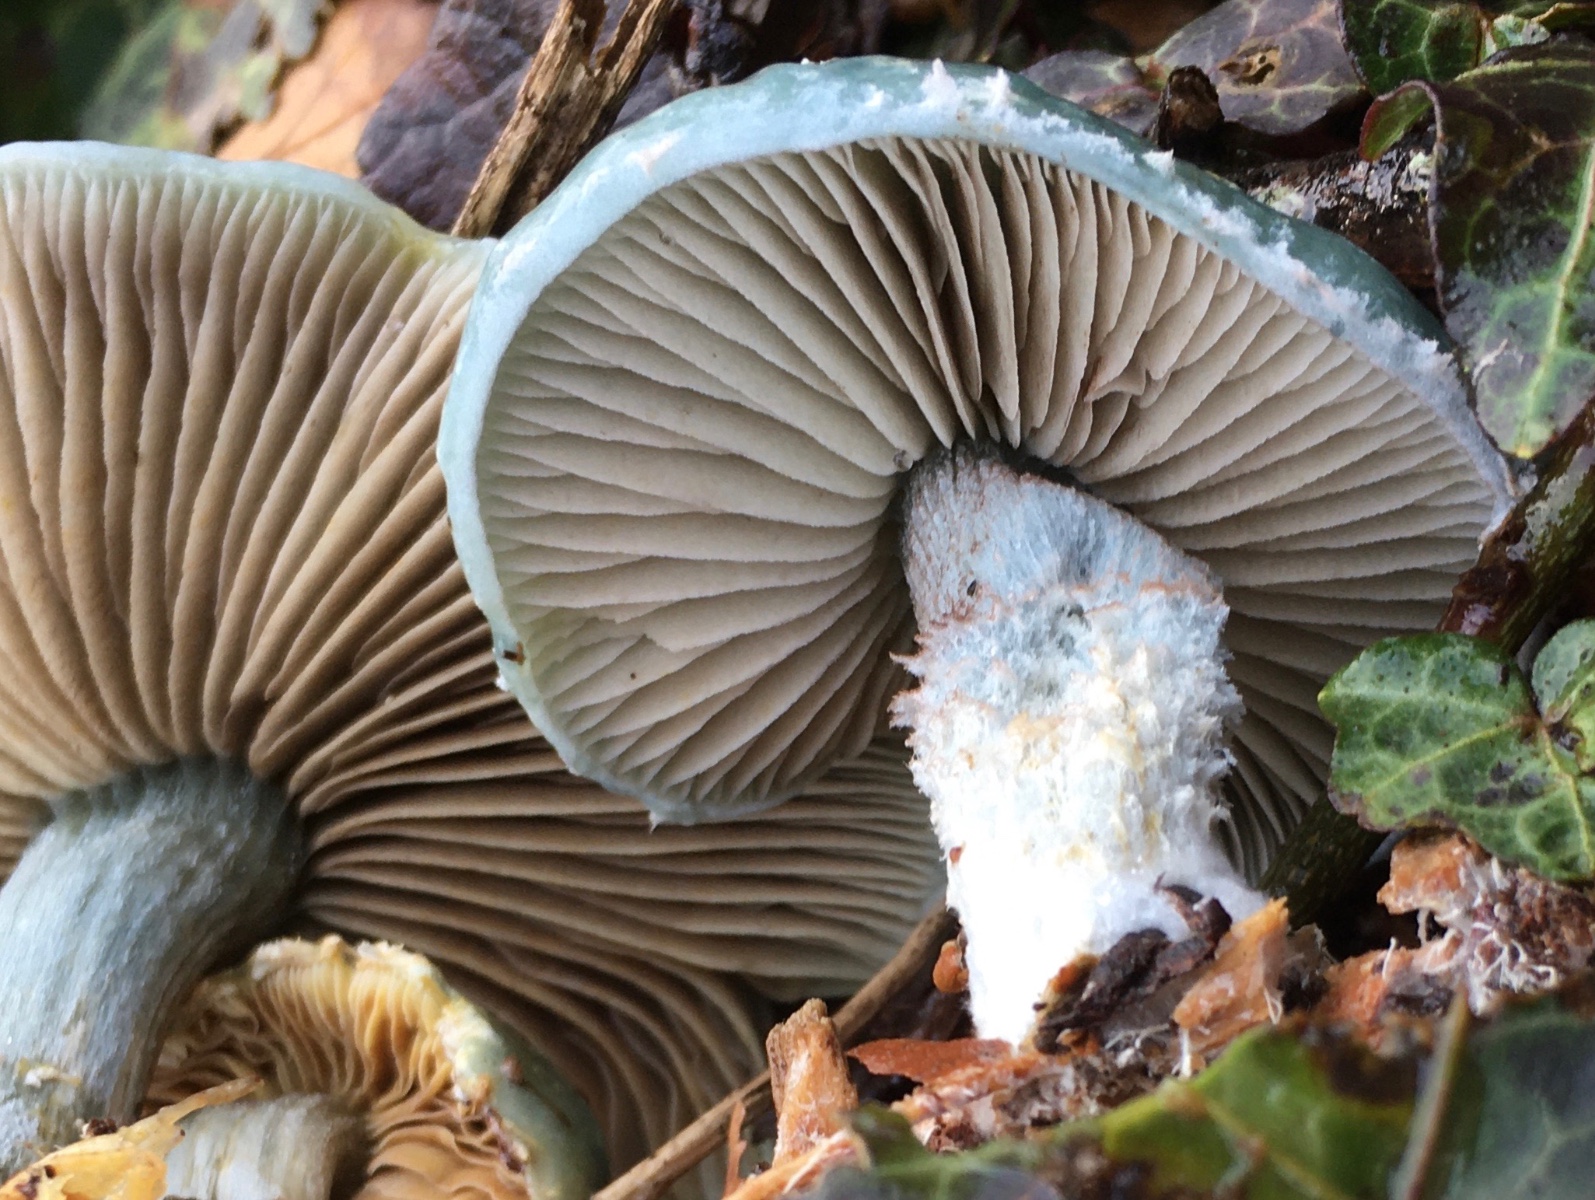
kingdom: Fungi
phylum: Basidiomycota
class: Agaricomycetes
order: Agaricales
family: Strophariaceae
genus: Stropharia
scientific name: Stropharia cyanea
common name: blågrøn bredblad
